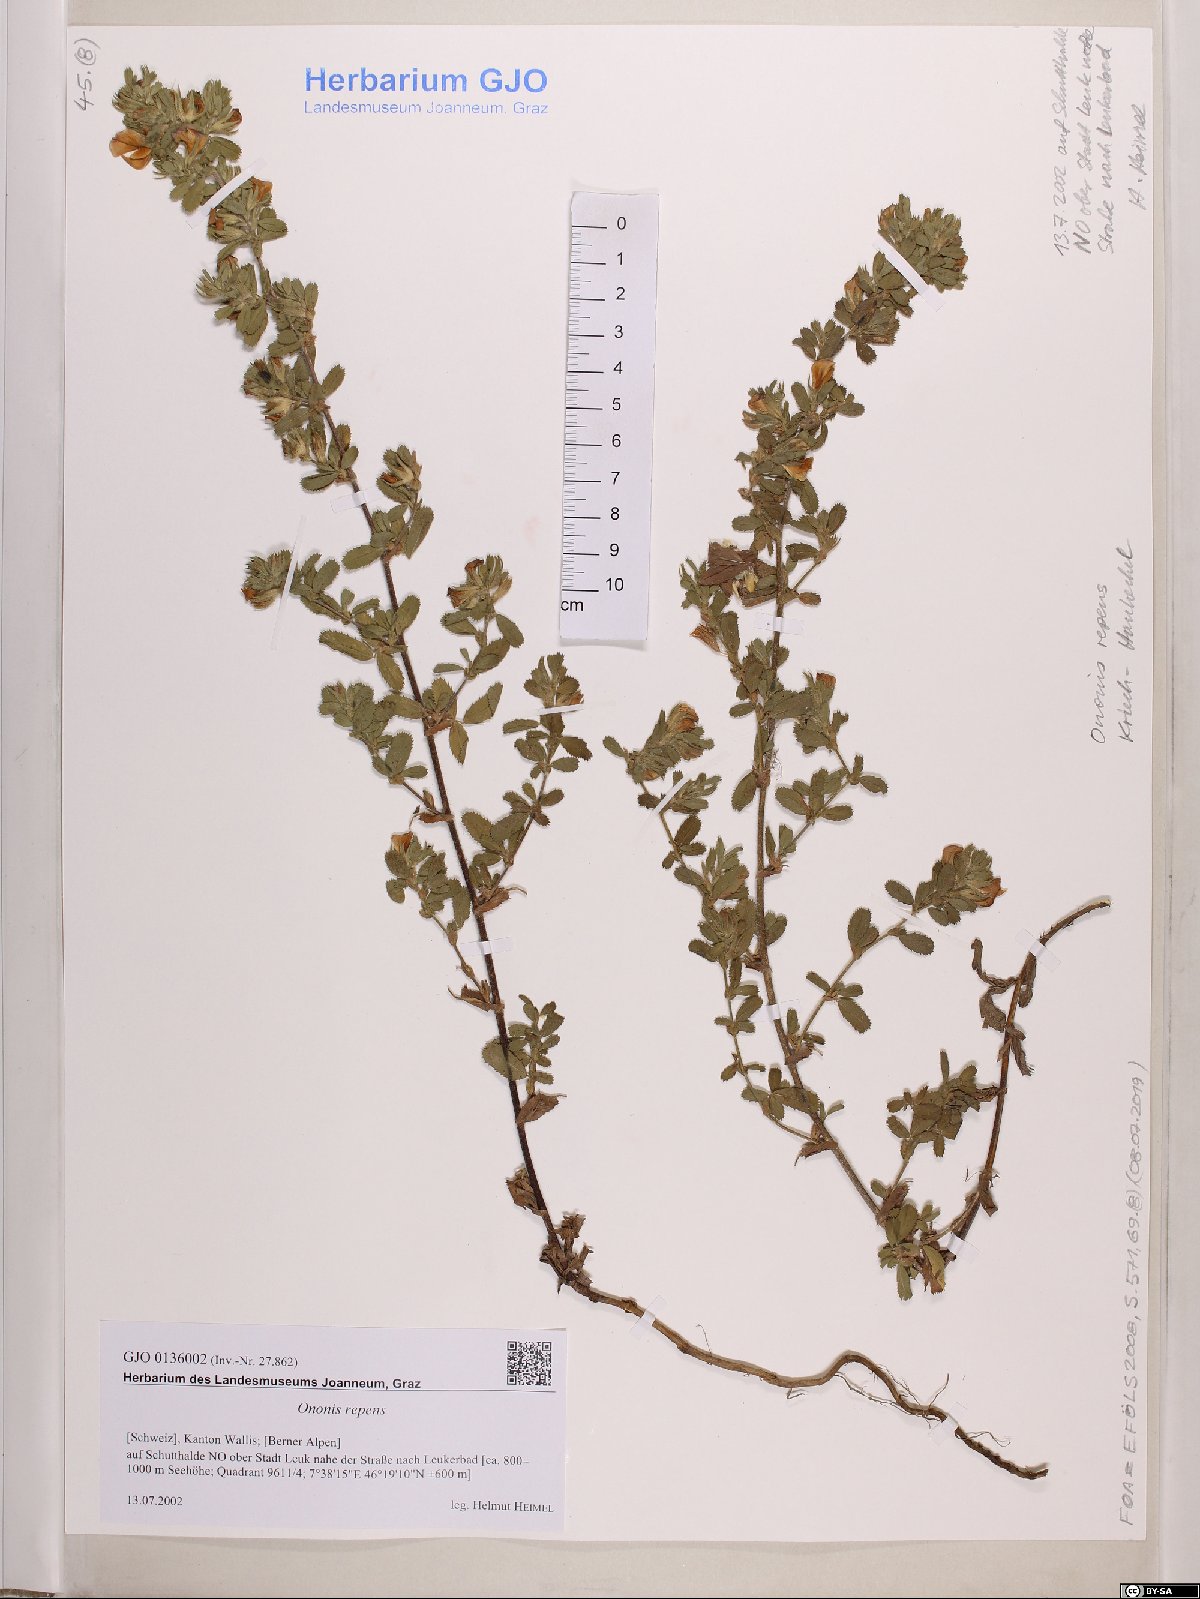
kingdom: Plantae
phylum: Tracheophyta
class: Magnoliopsida
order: Fabales
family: Fabaceae
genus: Ononis
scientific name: Ononis spinosa
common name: Spiny restharrow
